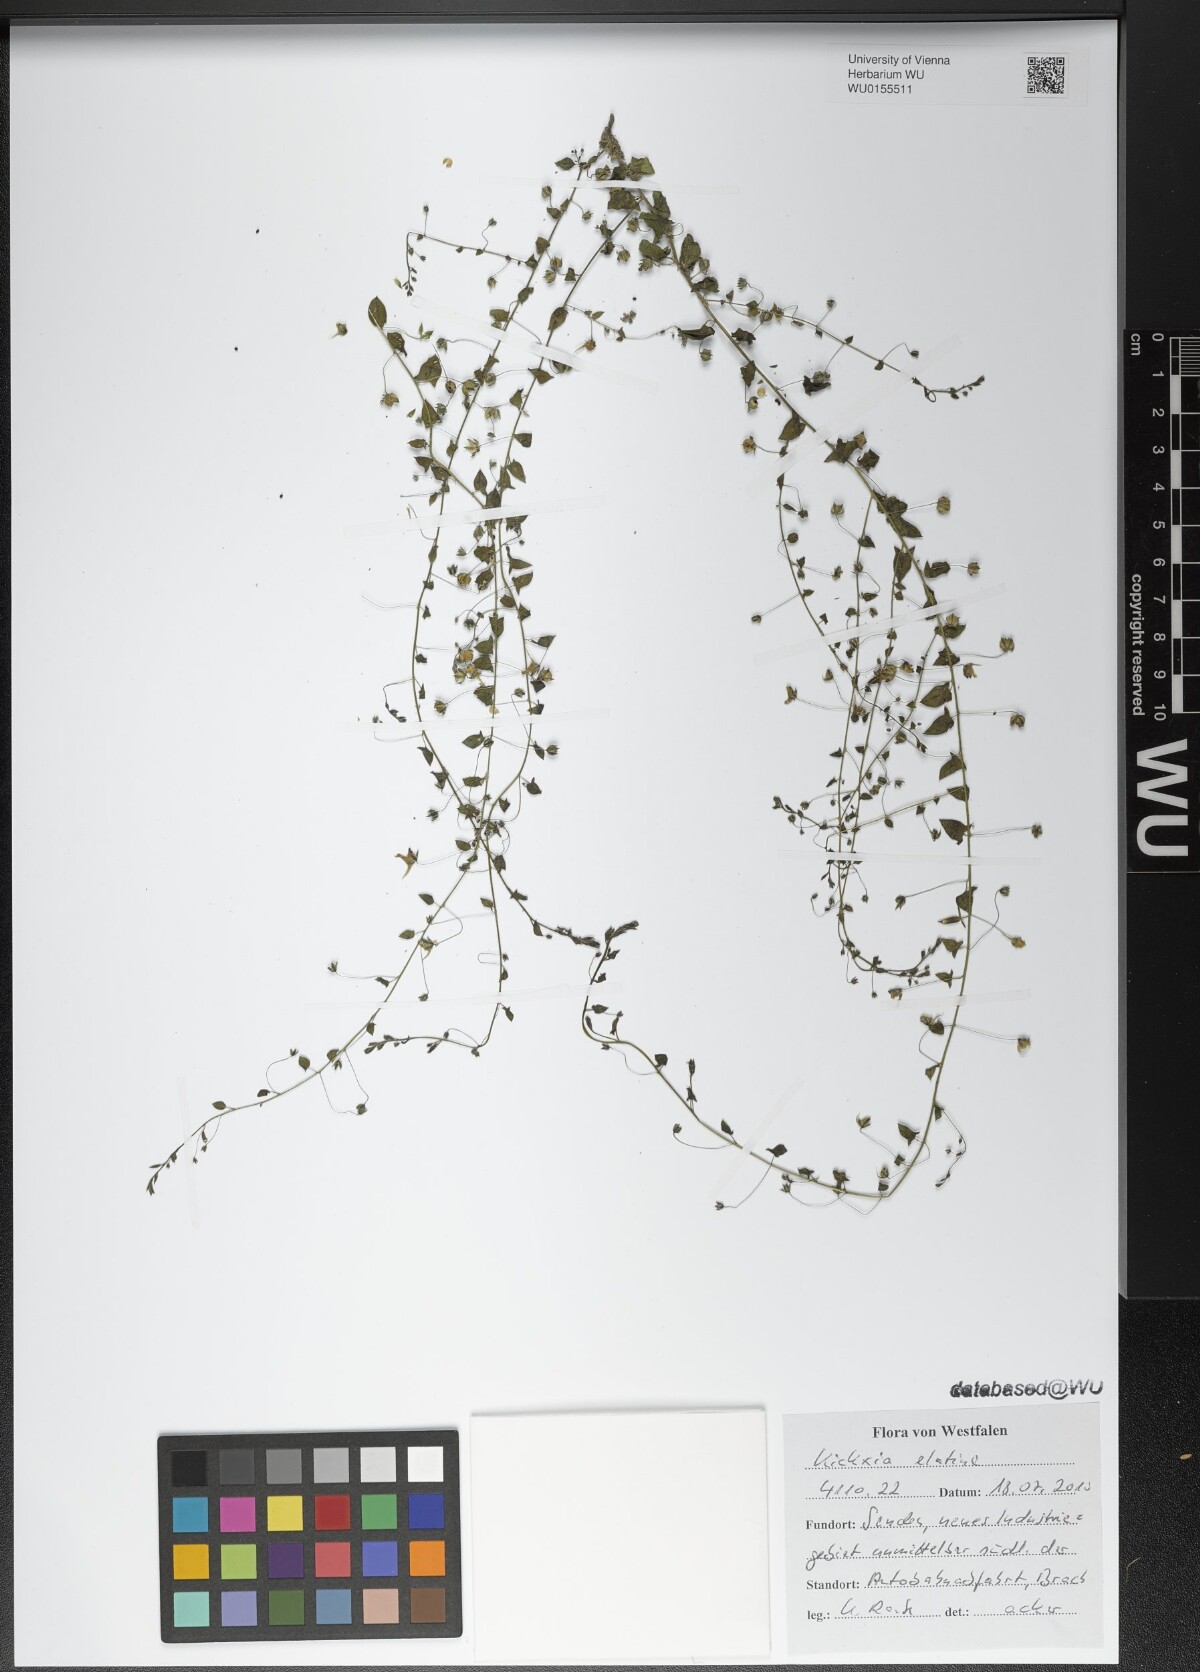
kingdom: Plantae
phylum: Tracheophyta
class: Magnoliopsida
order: Lamiales
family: Plantaginaceae
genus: Kickxia
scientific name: Kickxia elatine
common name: Sharp-leaved fluellen
